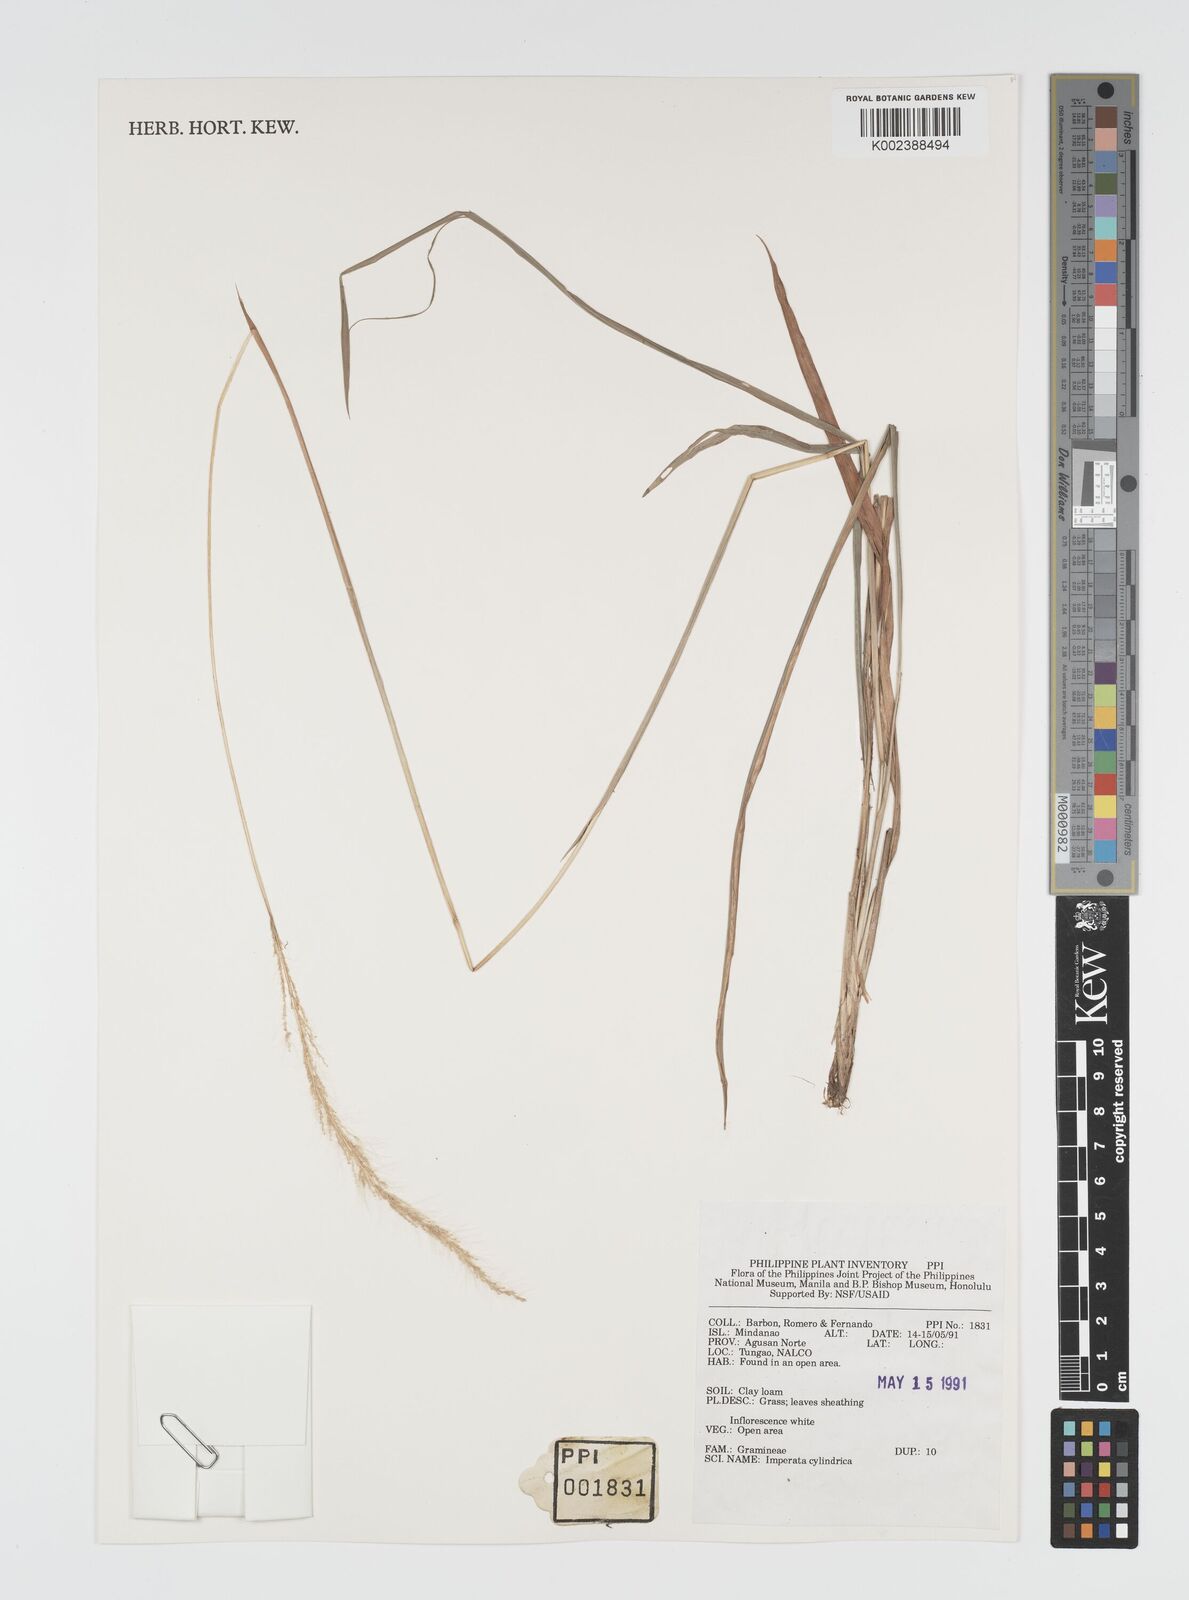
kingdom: Plantae
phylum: Tracheophyta
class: Liliopsida
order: Poales
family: Poaceae
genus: Imperata
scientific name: Imperata cylindrica
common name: Cogongrass
